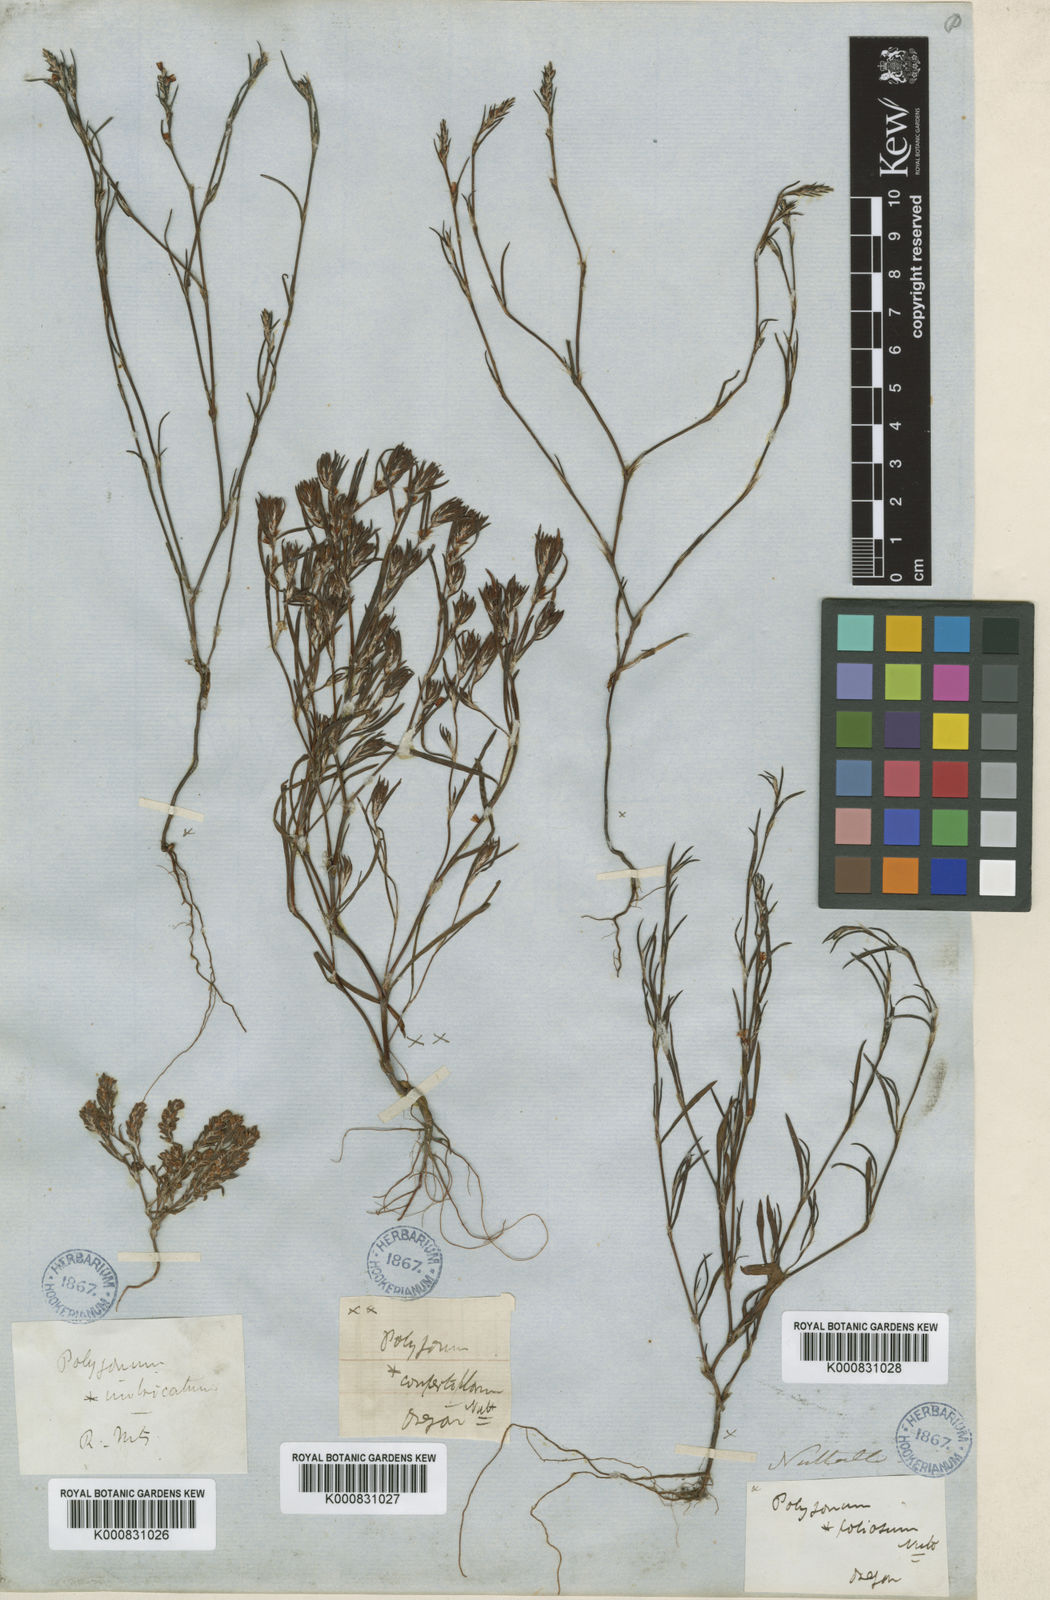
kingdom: Plantae
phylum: Tracheophyta
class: Magnoliopsida
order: Caryophyllales
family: Polygonaceae
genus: Polygonum
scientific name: Polygonum douglasii
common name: Douglas' knotweed
